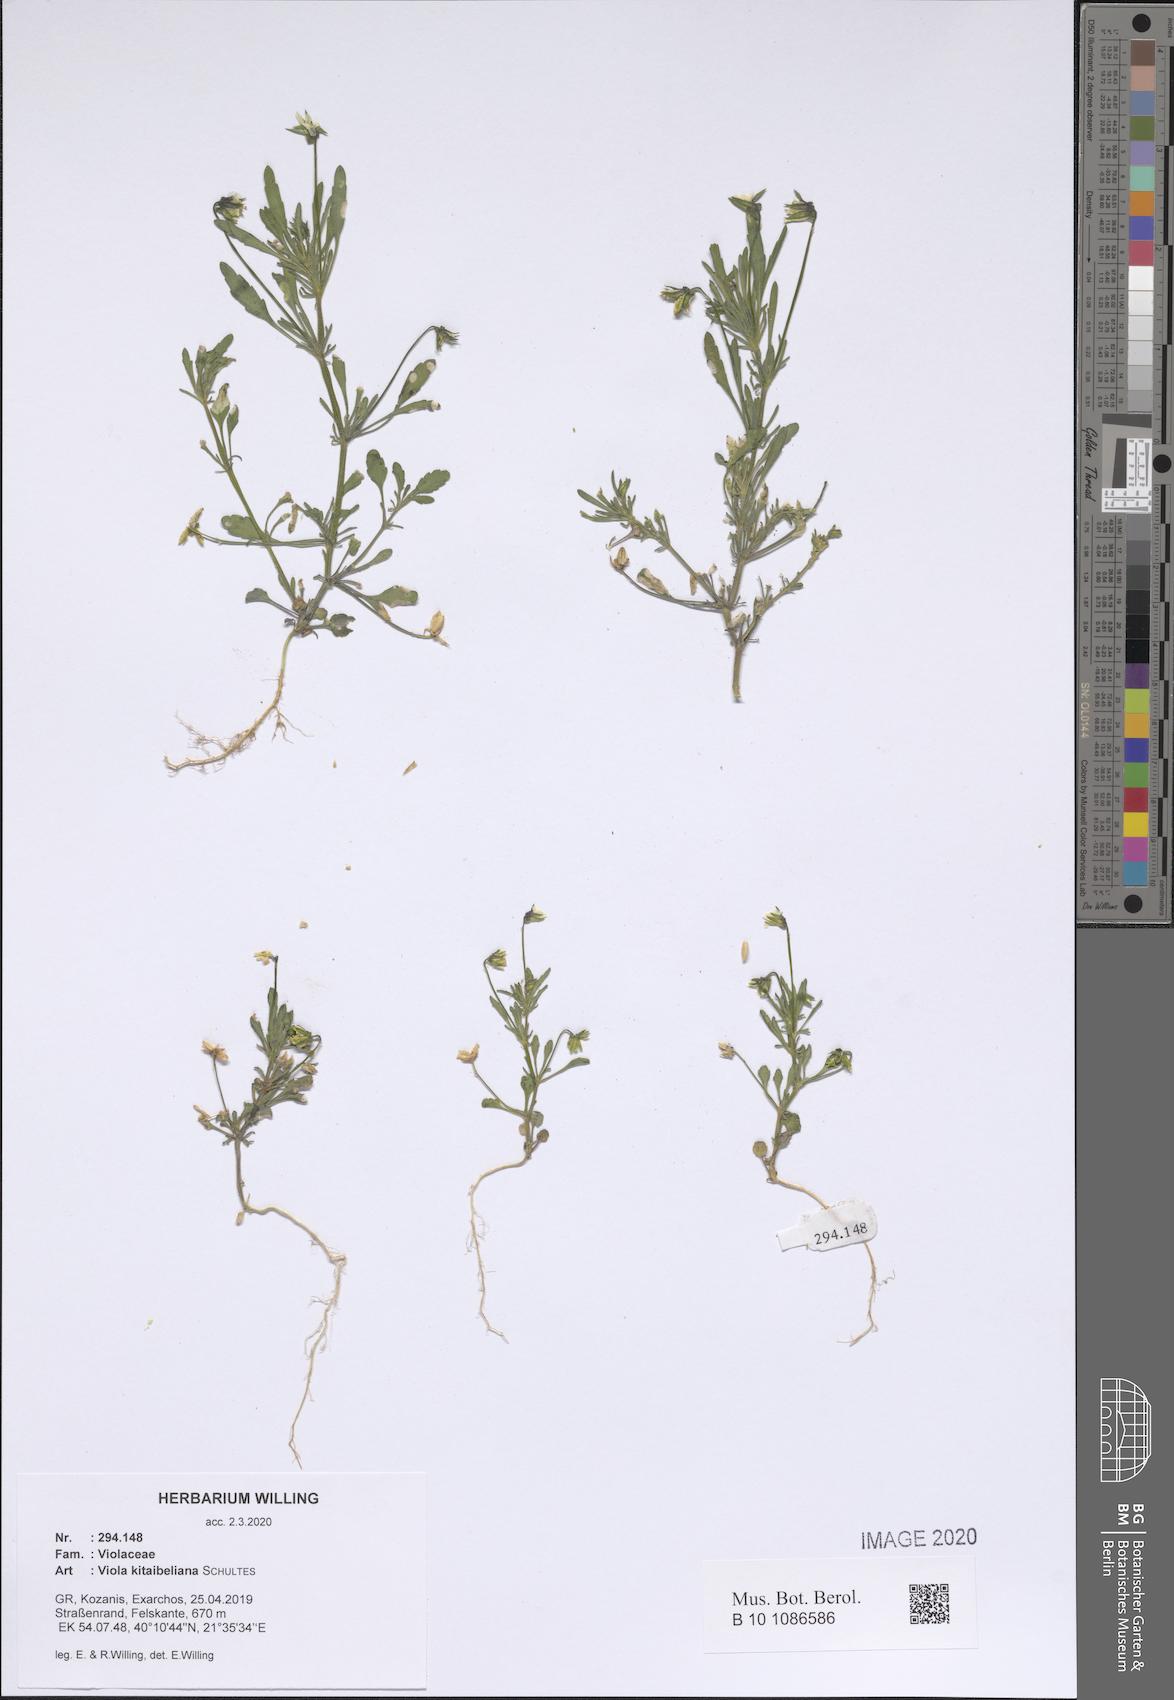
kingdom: Plantae
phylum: Tracheophyta
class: Magnoliopsida
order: Malpighiales
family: Violaceae
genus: Viola
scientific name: Viola kitaibeliana
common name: Dwarf pansy
